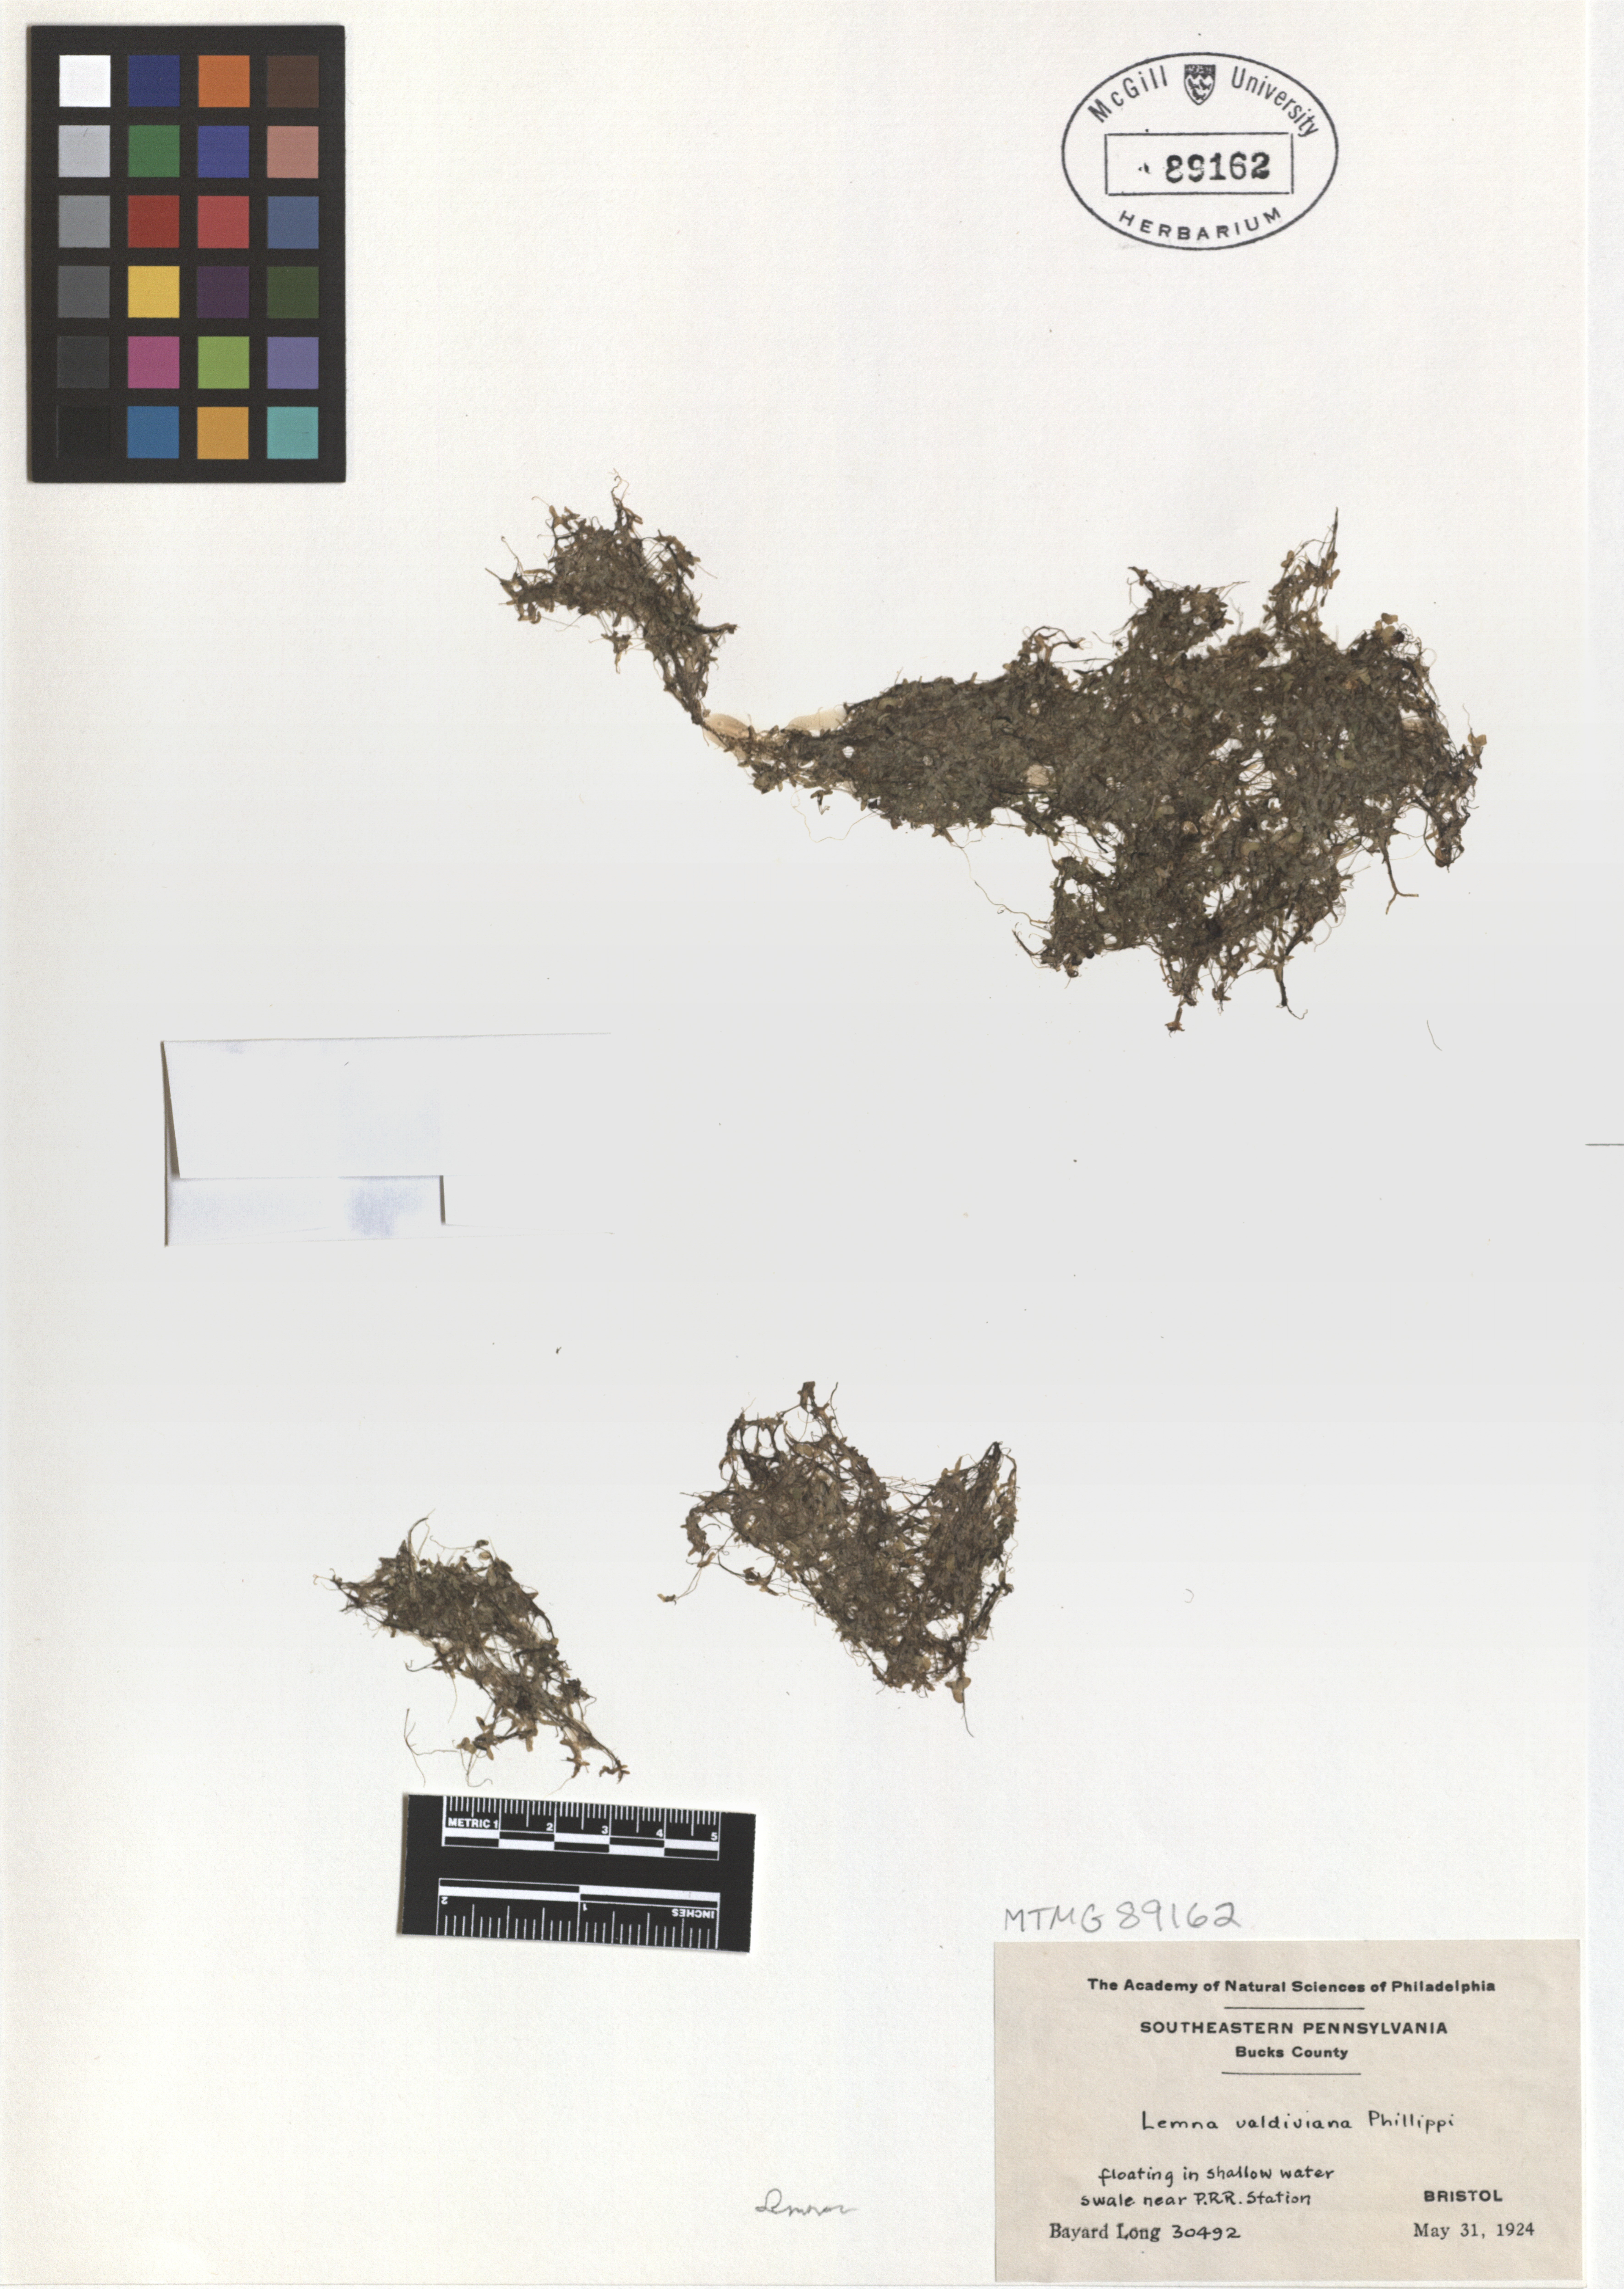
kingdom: Plantae
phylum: Tracheophyta
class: Liliopsida
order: Alismatales
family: Araceae
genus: Lemna
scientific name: Lemna valdiviana
